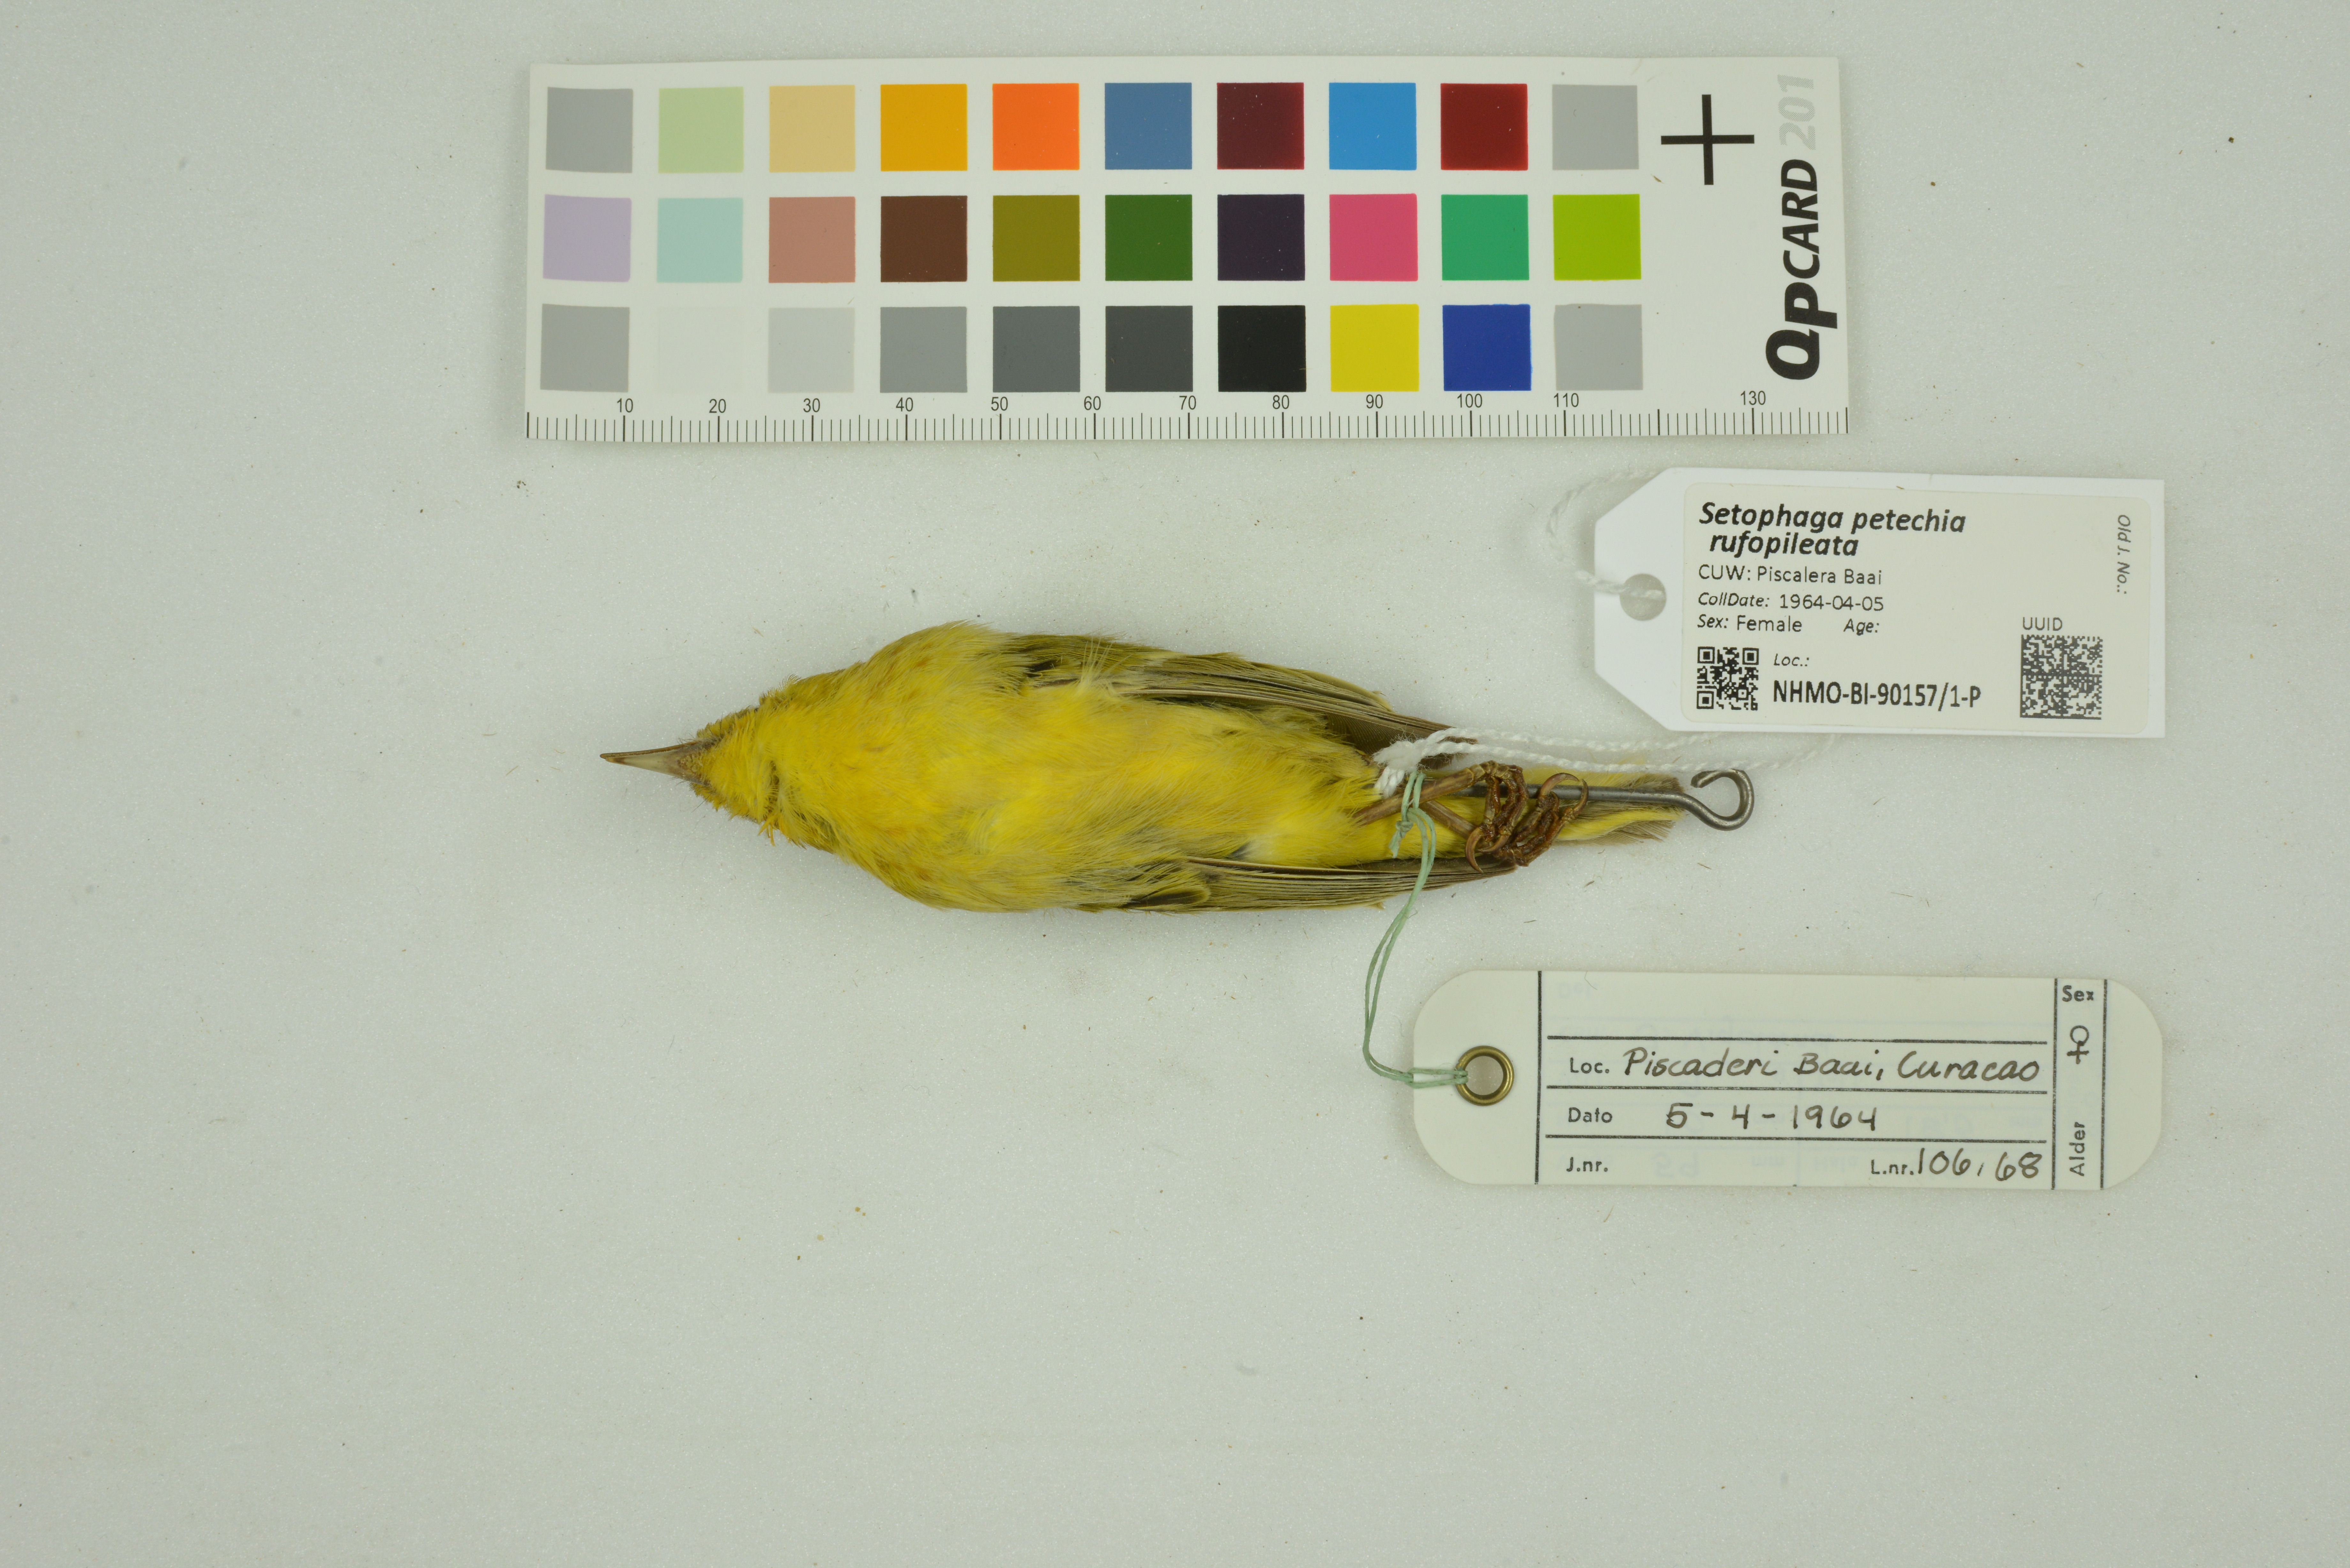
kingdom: Animalia
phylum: Chordata
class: Aves
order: Passeriformes
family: Parulidae
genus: Setophaga
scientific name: Setophaga petechia
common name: Yellow warbler
